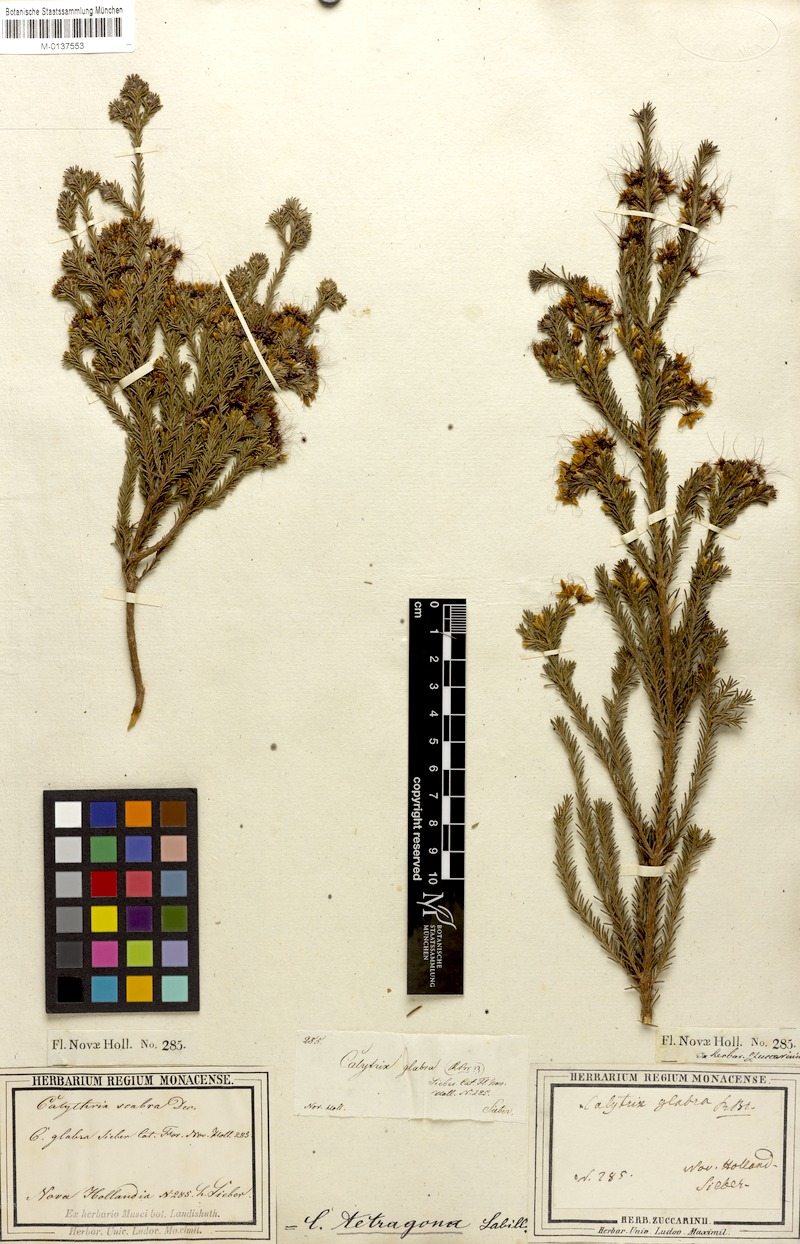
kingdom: Plantae
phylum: Tracheophyta
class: Magnoliopsida
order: Myrtales
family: Myrtaceae
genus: Calytrix
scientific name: Calytrix tetragona
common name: Common fringe myrtle
